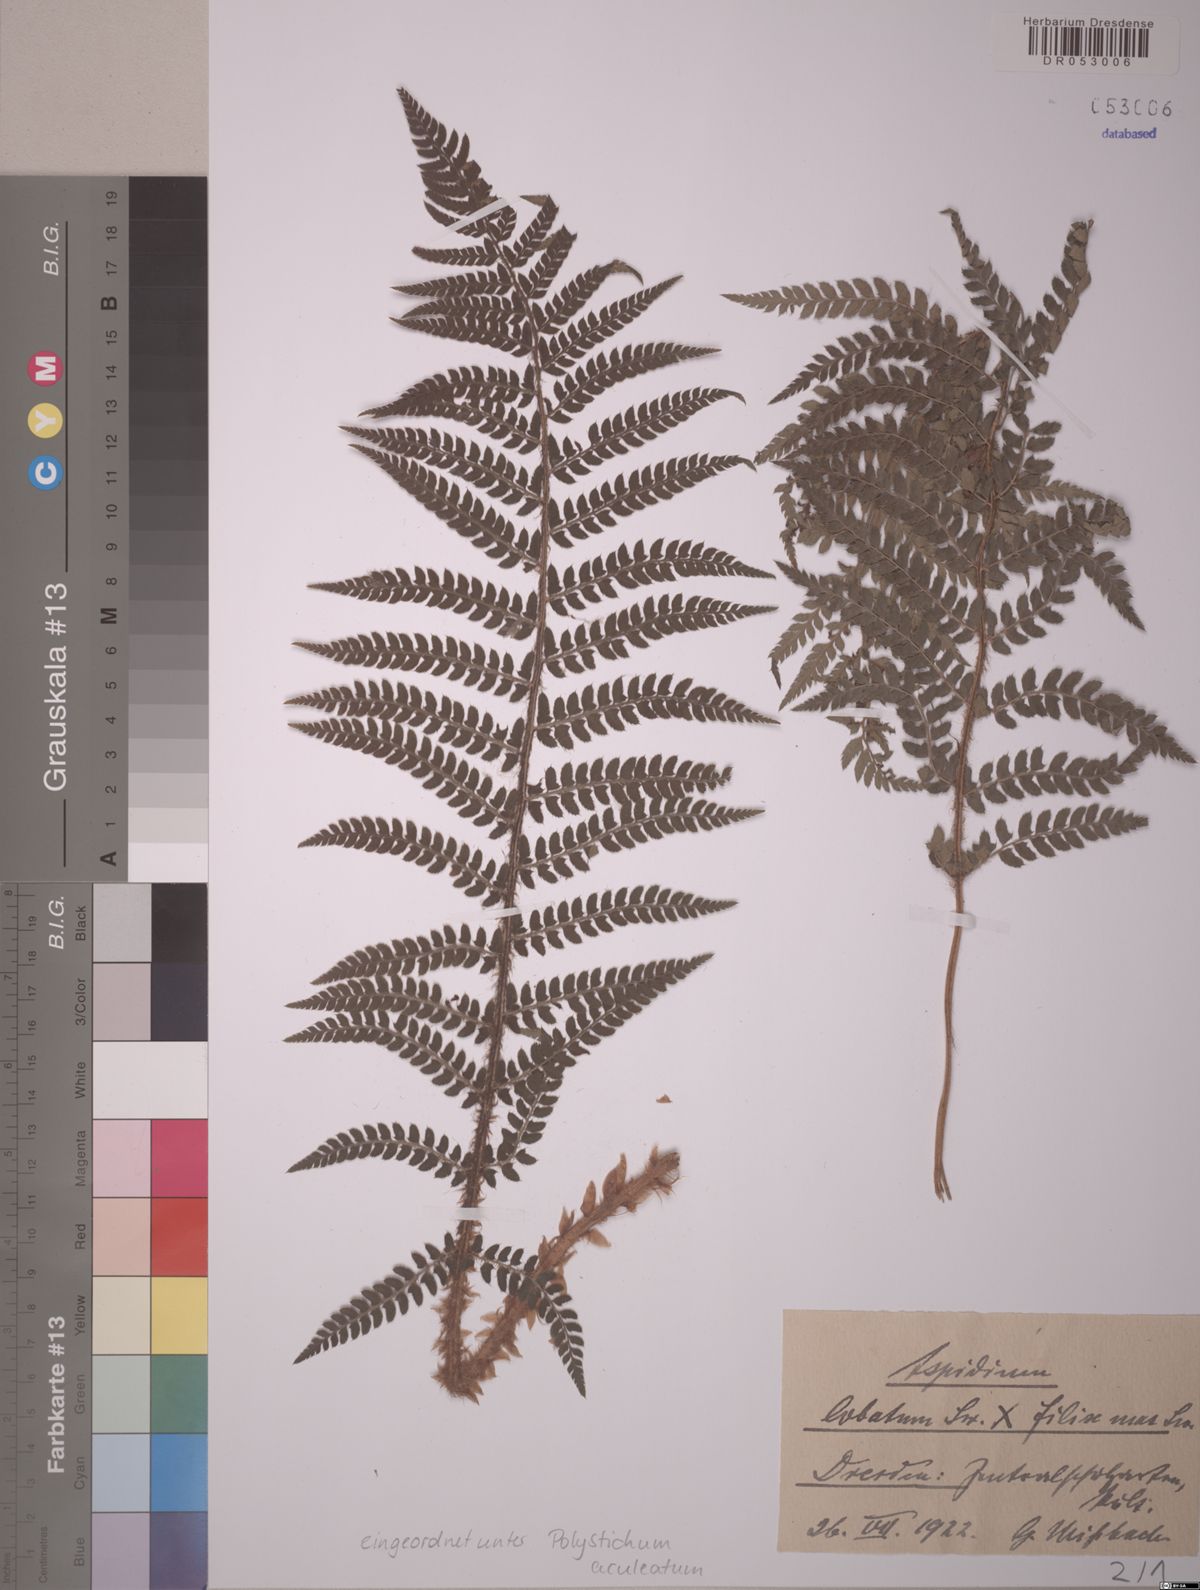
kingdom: Plantae
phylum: Tracheophyta
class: Polypodiopsida
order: Polypodiales
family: Dryopteridaceae
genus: Polystichum
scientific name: Polystichum aculeatum
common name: Hard shield-fern
